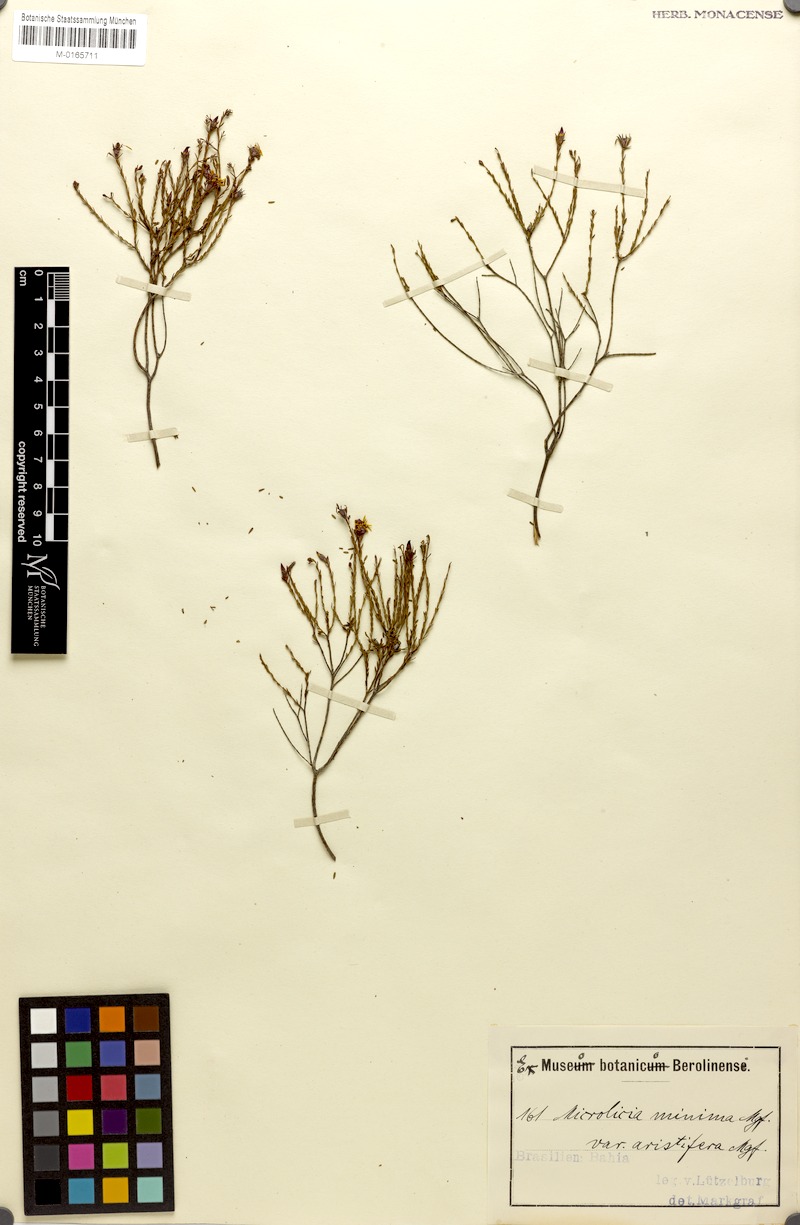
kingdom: Plantae
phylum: Tracheophyta
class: Magnoliopsida
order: Myrtales
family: Melastomataceae
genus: Microlicia
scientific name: Microlicia minima
